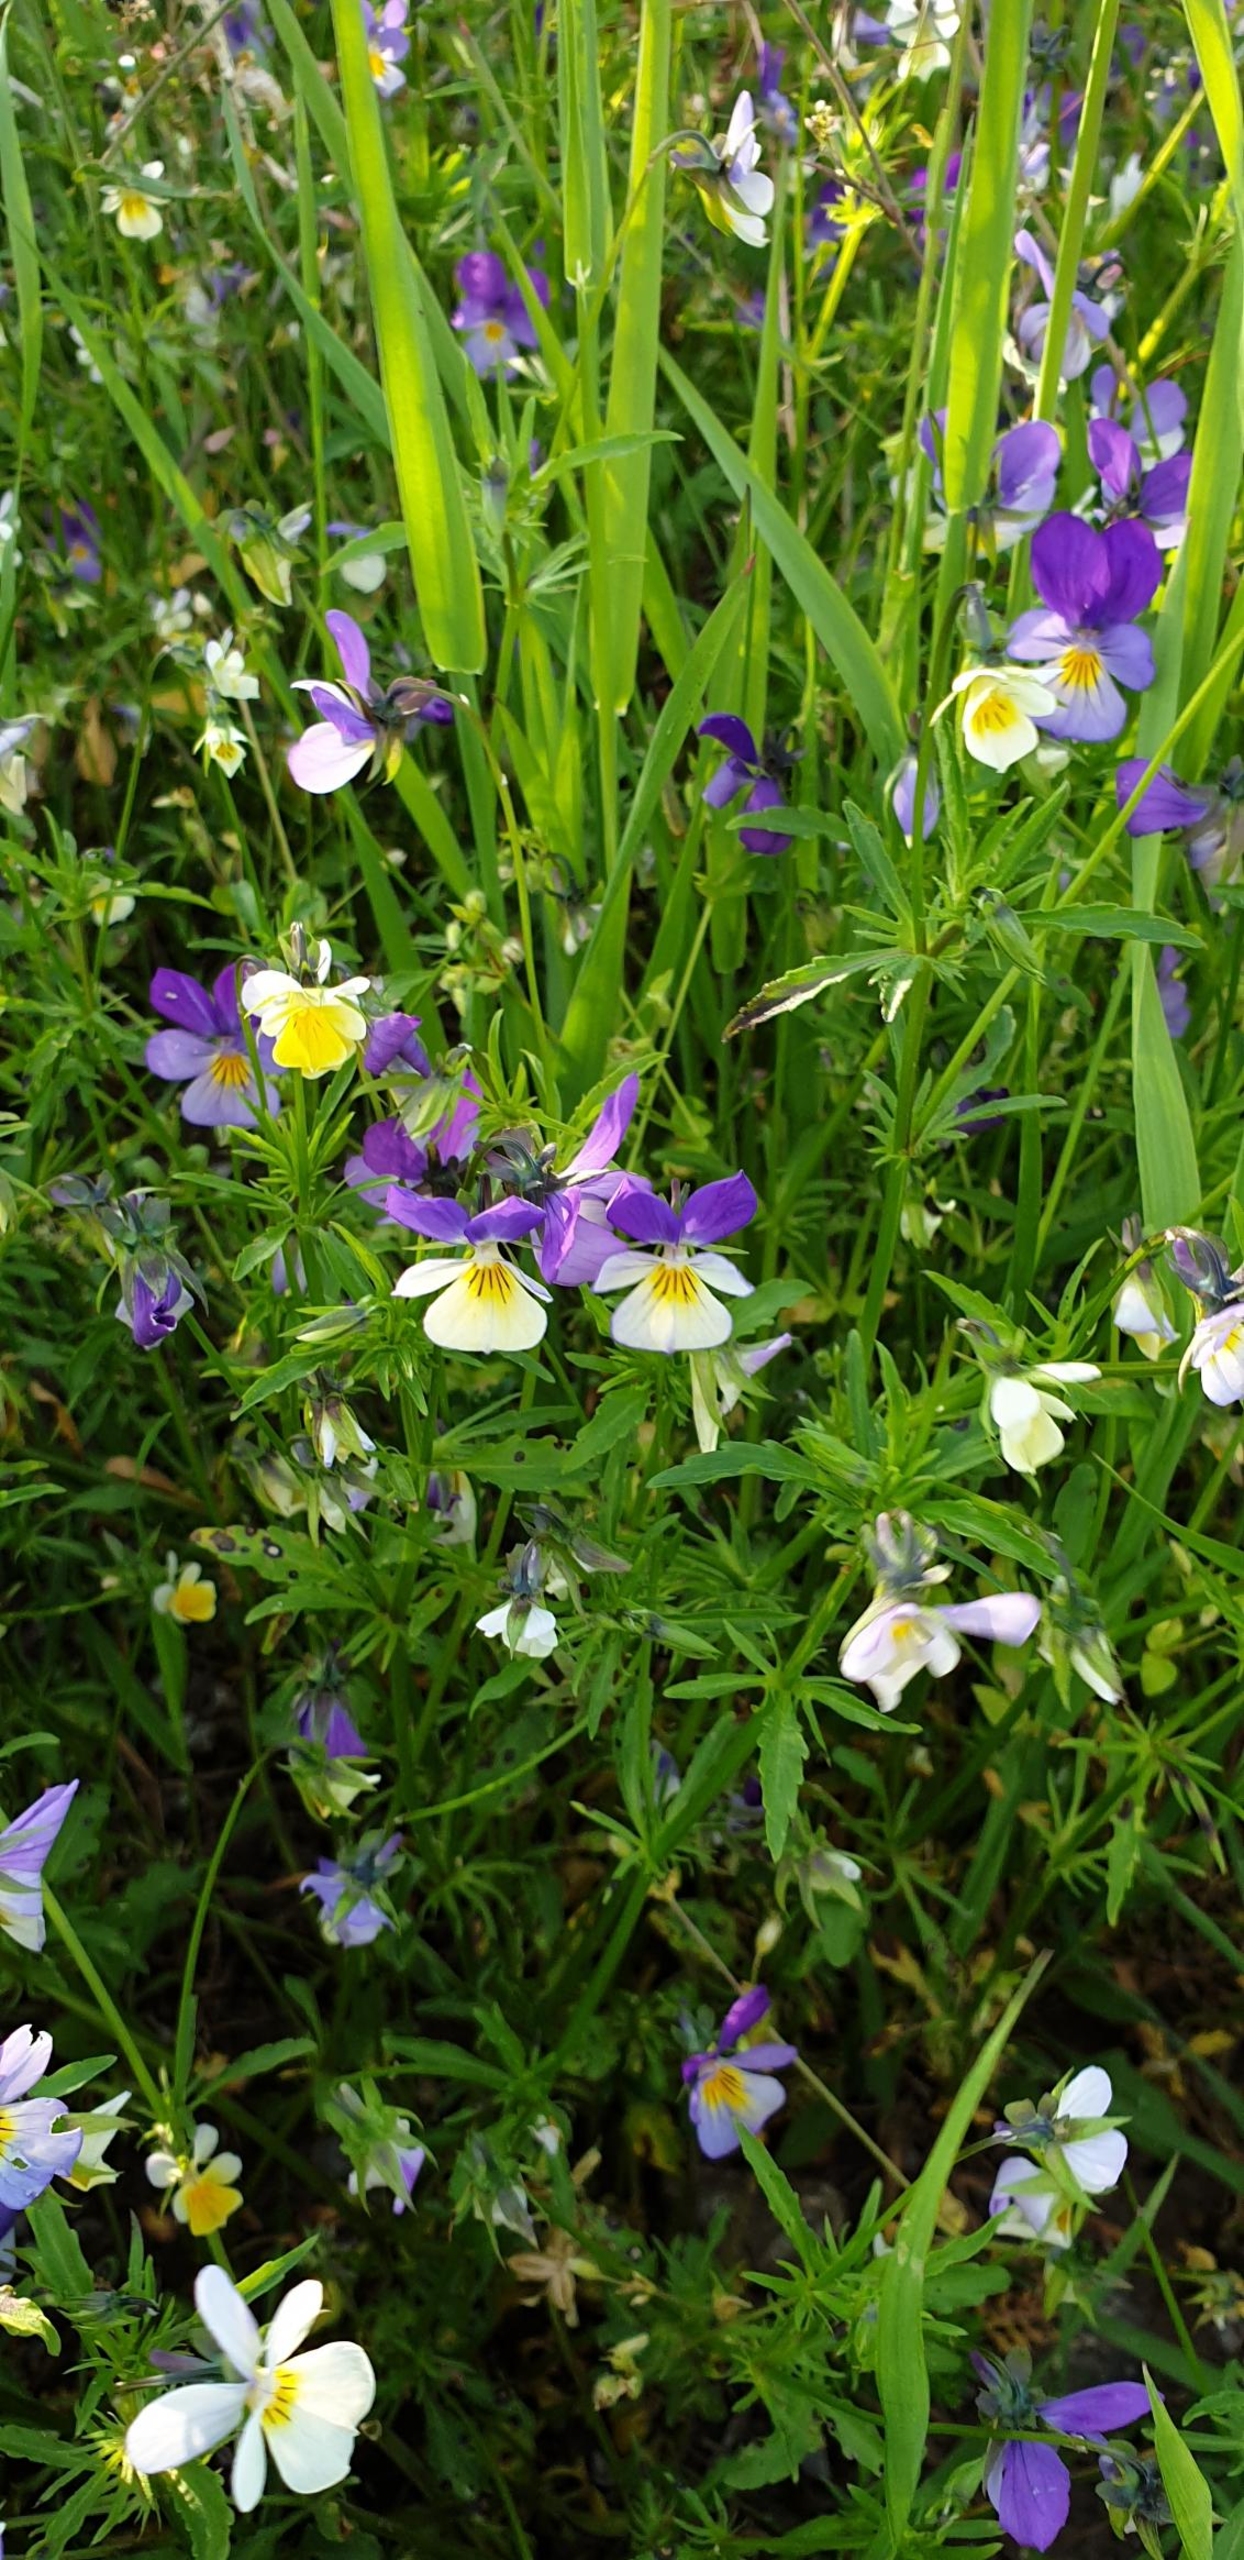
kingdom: Plantae
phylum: Tracheophyta
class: Magnoliopsida
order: Malpighiales
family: Violaceae
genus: Viola
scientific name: Viola tricolor
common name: Stedmoderblomst
